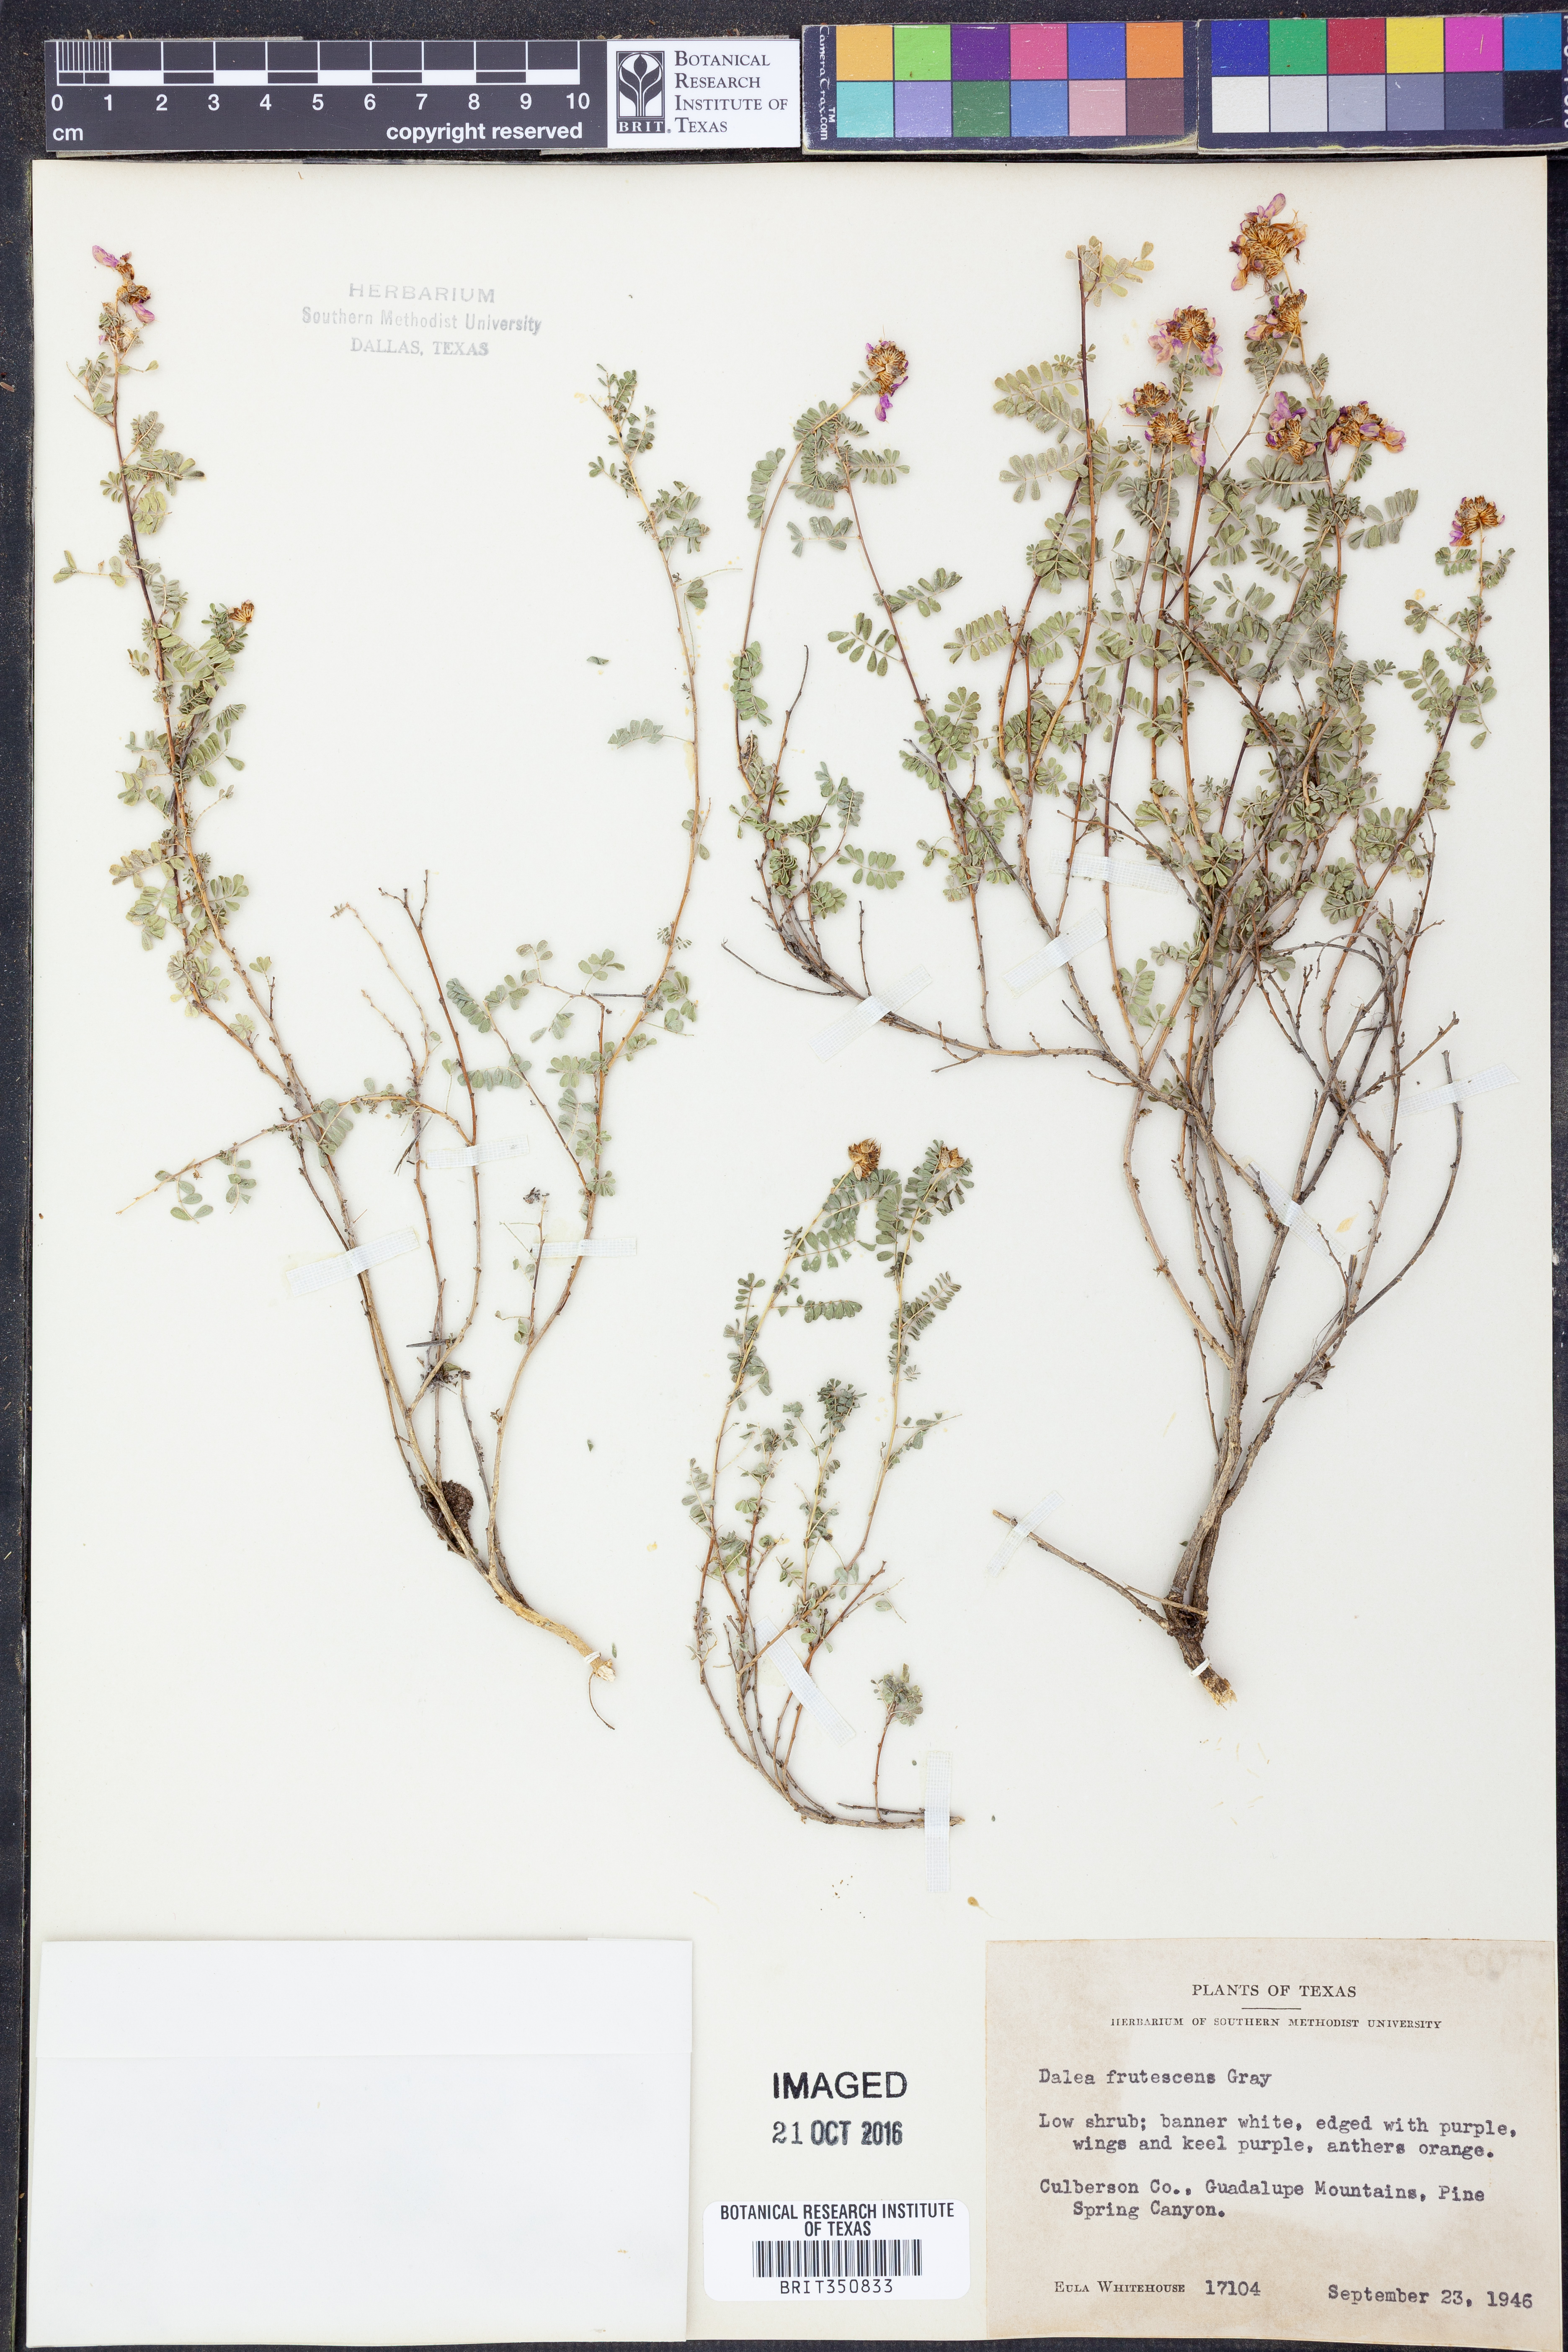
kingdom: Plantae
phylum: Tracheophyta
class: Magnoliopsida
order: Fabales
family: Fabaceae
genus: Dalea
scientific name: Dalea frutescens
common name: Black dalea
